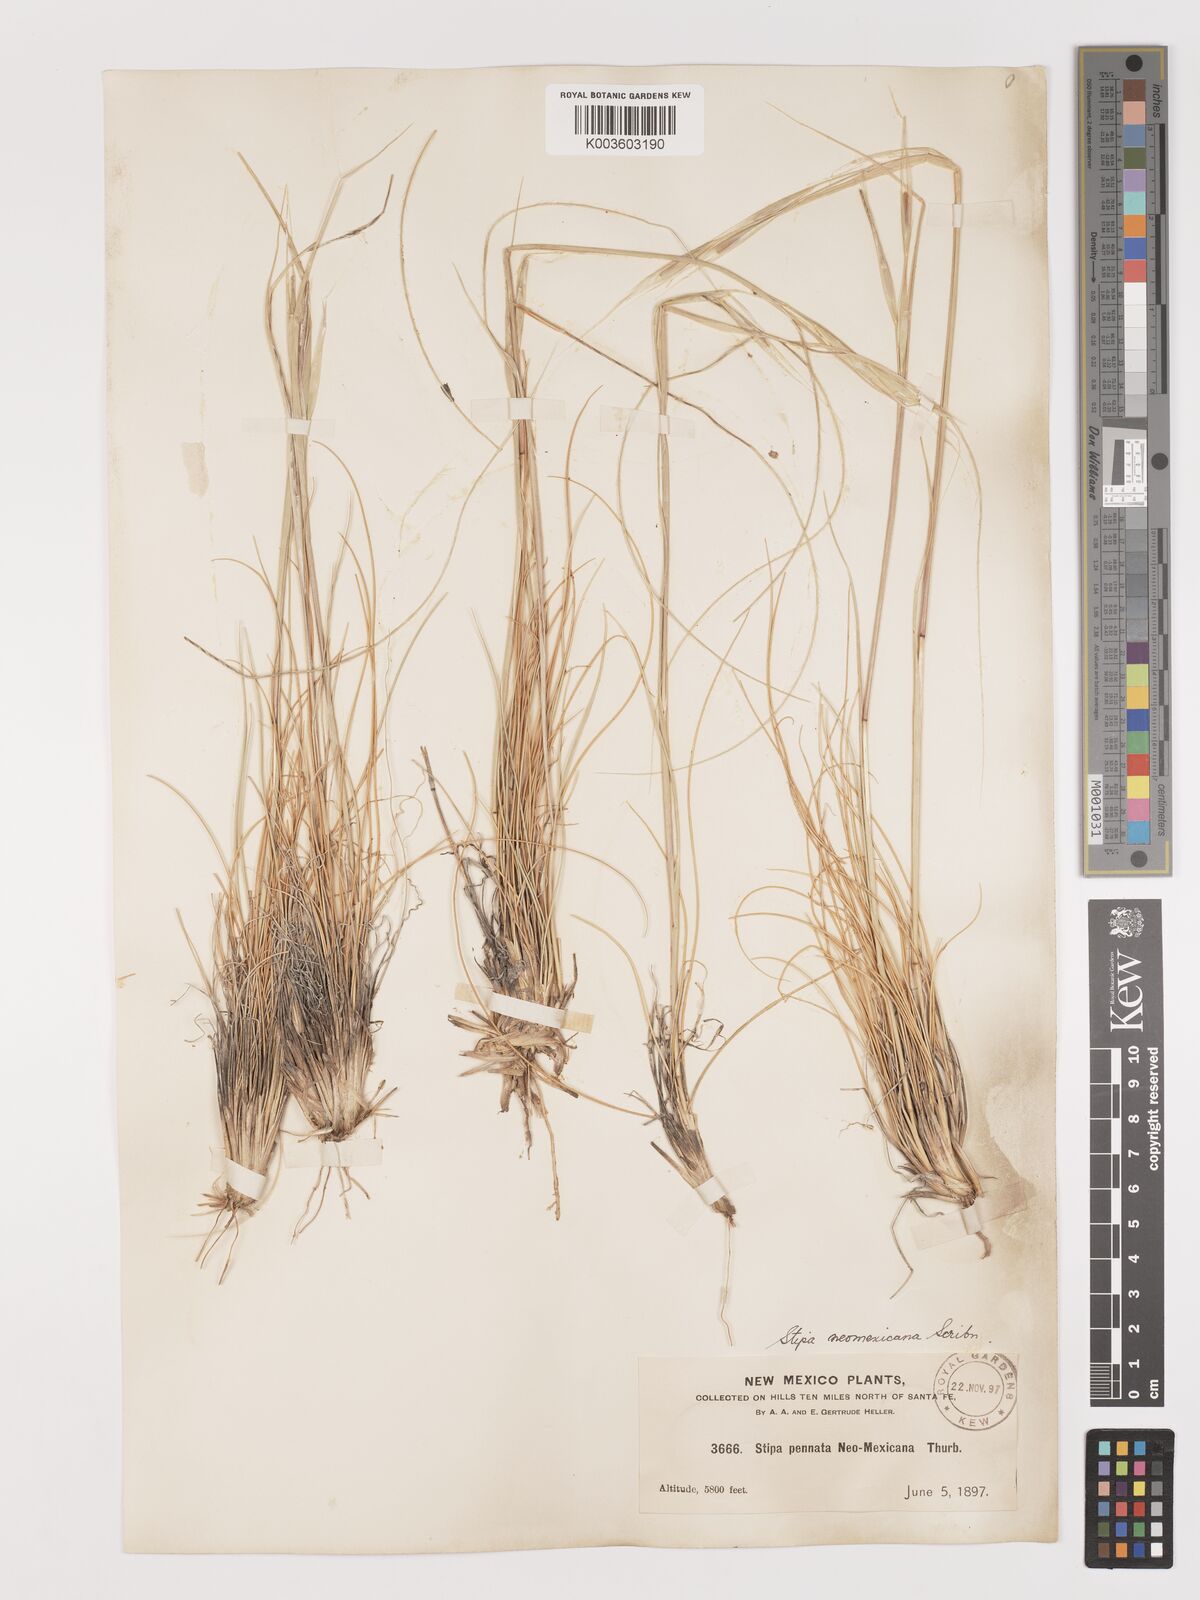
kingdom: Plantae
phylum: Tracheophyta
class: Liliopsida
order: Poales
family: Poaceae
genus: Hesperostipa
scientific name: Hesperostipa neomexicana
